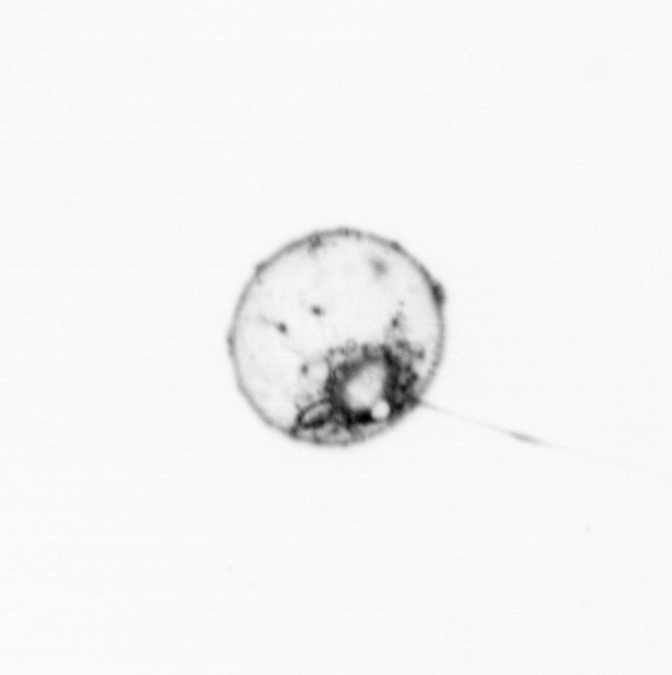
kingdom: Animalia
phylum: Cnidaria
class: Hydrozoa
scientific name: Hydrozoa
